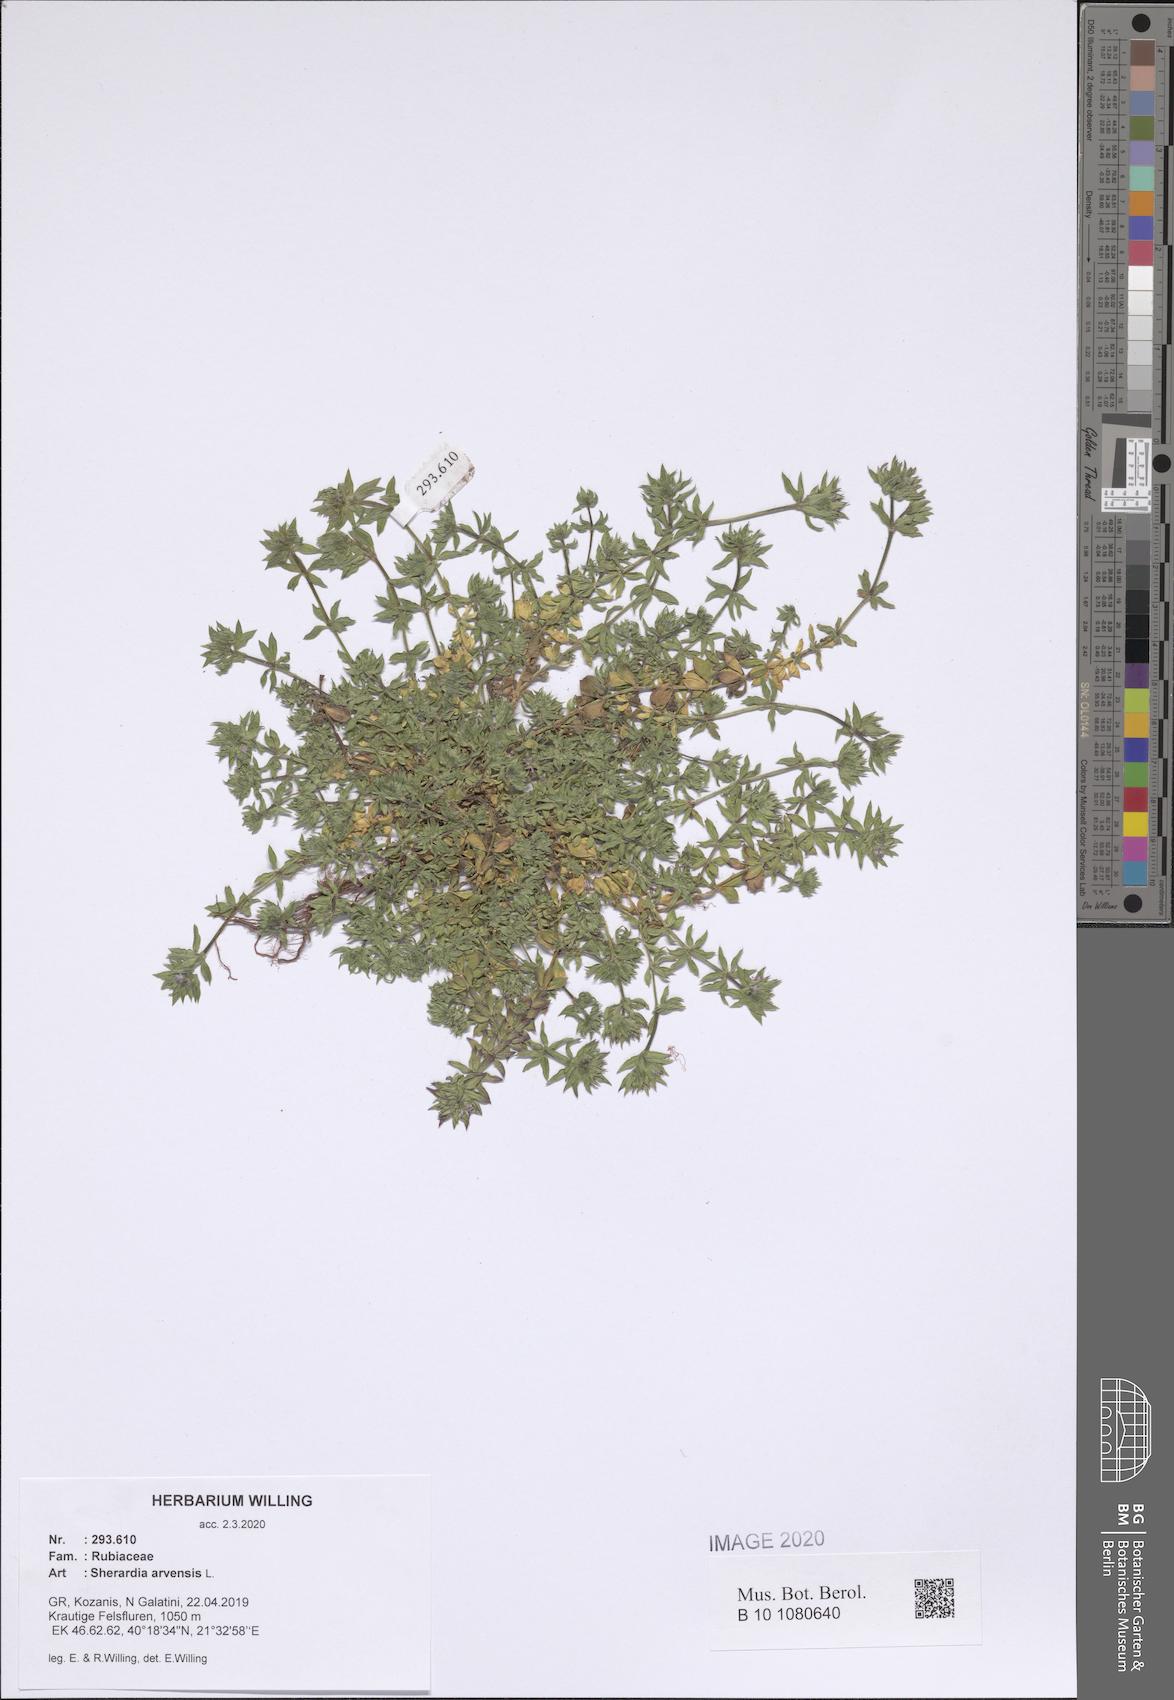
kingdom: Plantae
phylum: Tracheophyta
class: Magnoliopsida
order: Gentianales
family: Rubiaceae
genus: Sherardia
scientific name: Sherardia arvensis
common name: Field madder
